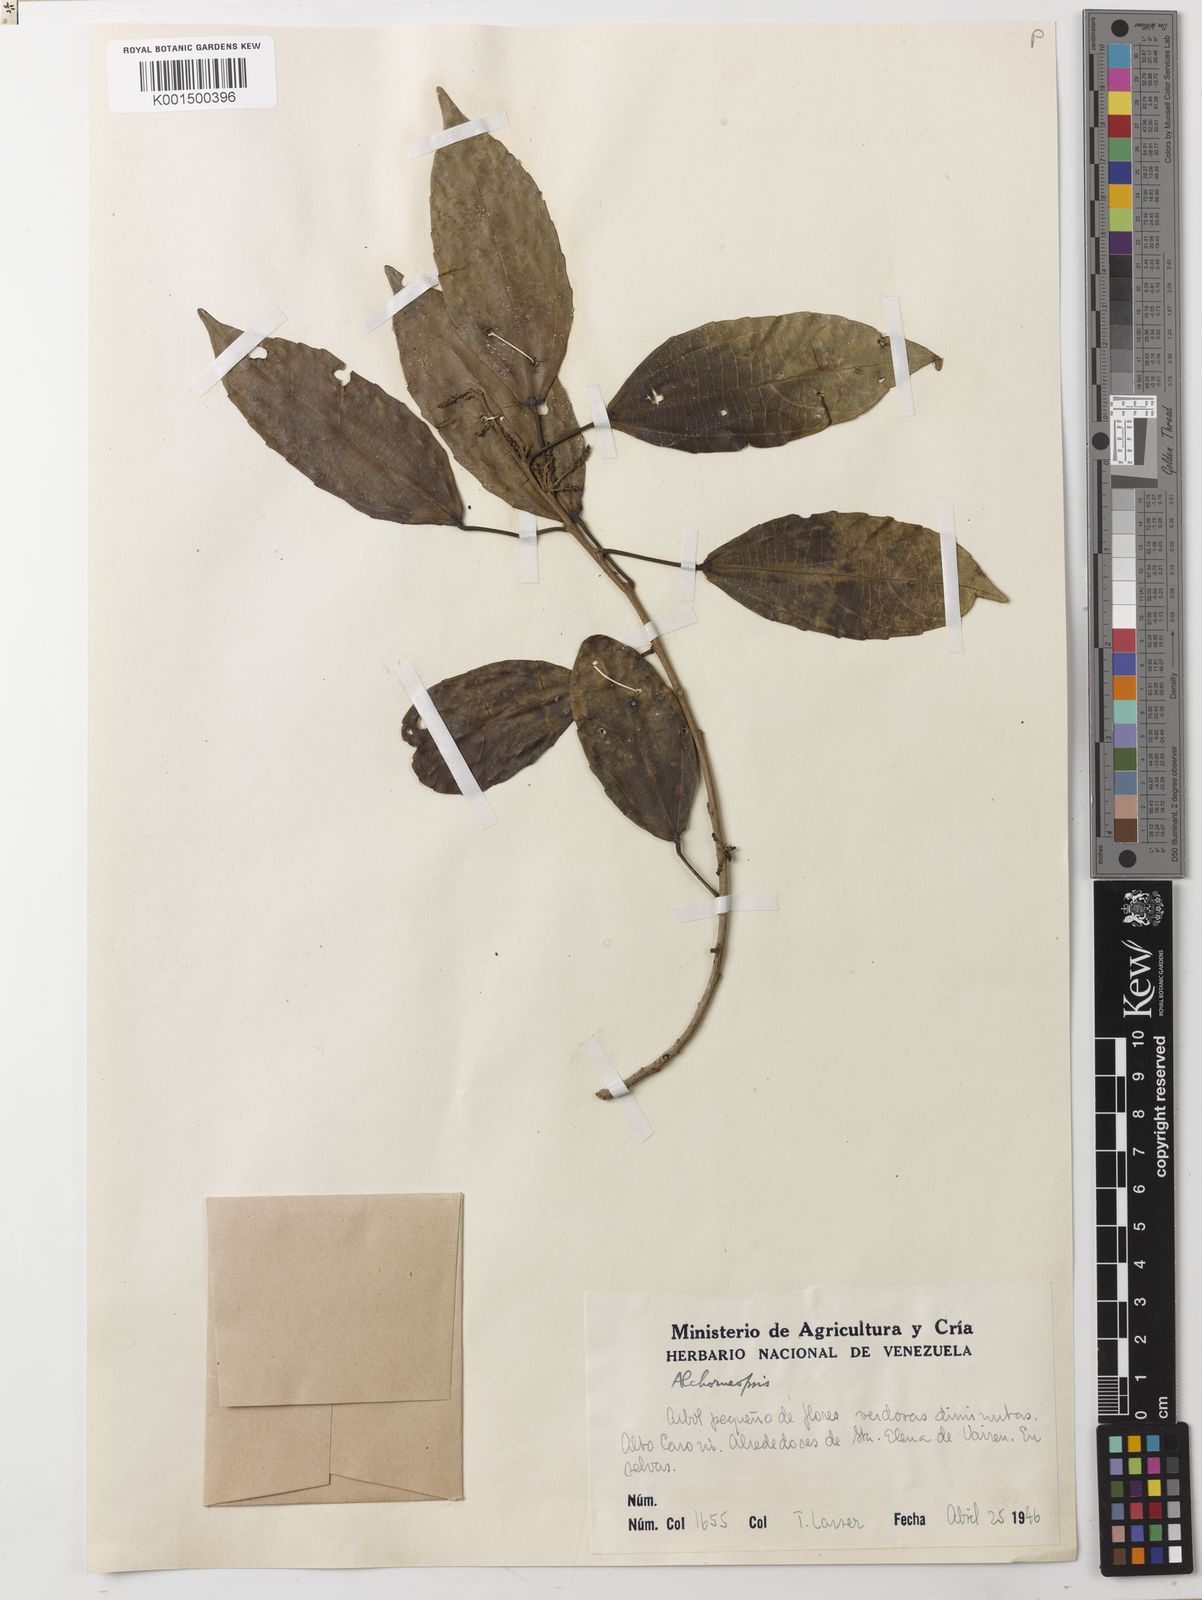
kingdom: Plantae
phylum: Tracheophyta
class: Magnoliopsida
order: Malpighiales
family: Euphorbiaceae
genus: Alchorneopsis
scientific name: Alchorneopsis floribunda
